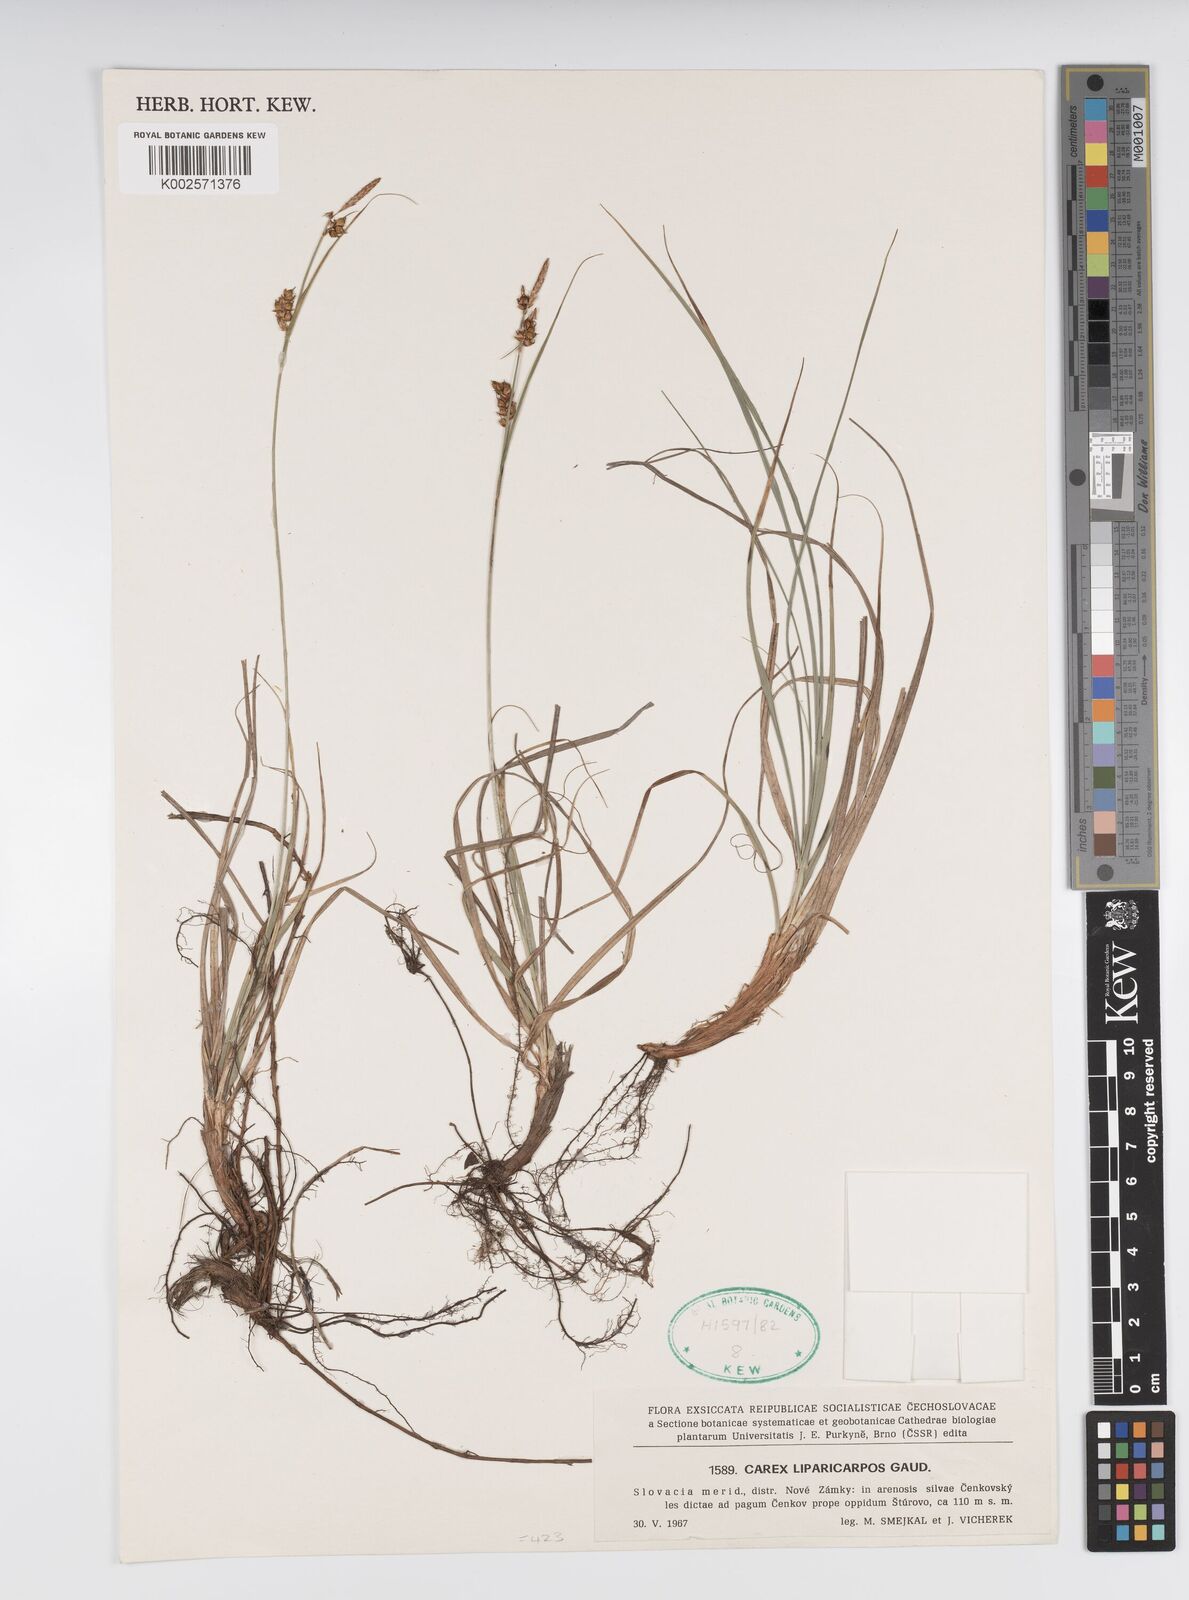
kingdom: Plantae
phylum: Tracheophyta
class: Liliopsida
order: Poales
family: Cyperaceae
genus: Carex
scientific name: Carex liparocarpos
